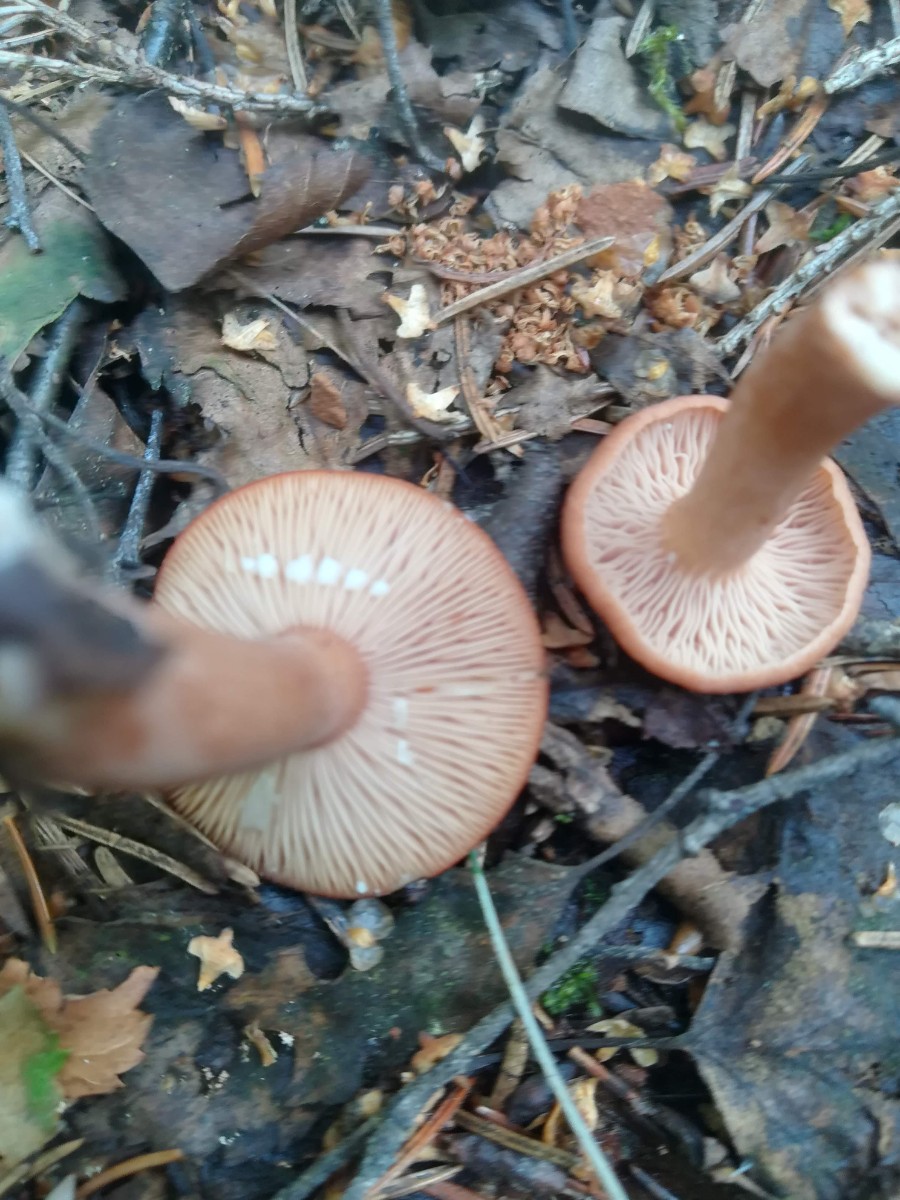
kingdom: Fungi
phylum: Basidiomycota
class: Agaricomycetes
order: Russulales
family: Russulaceae
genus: Lactarius
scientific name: Lactarius tabidus
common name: rynket mælkehat
